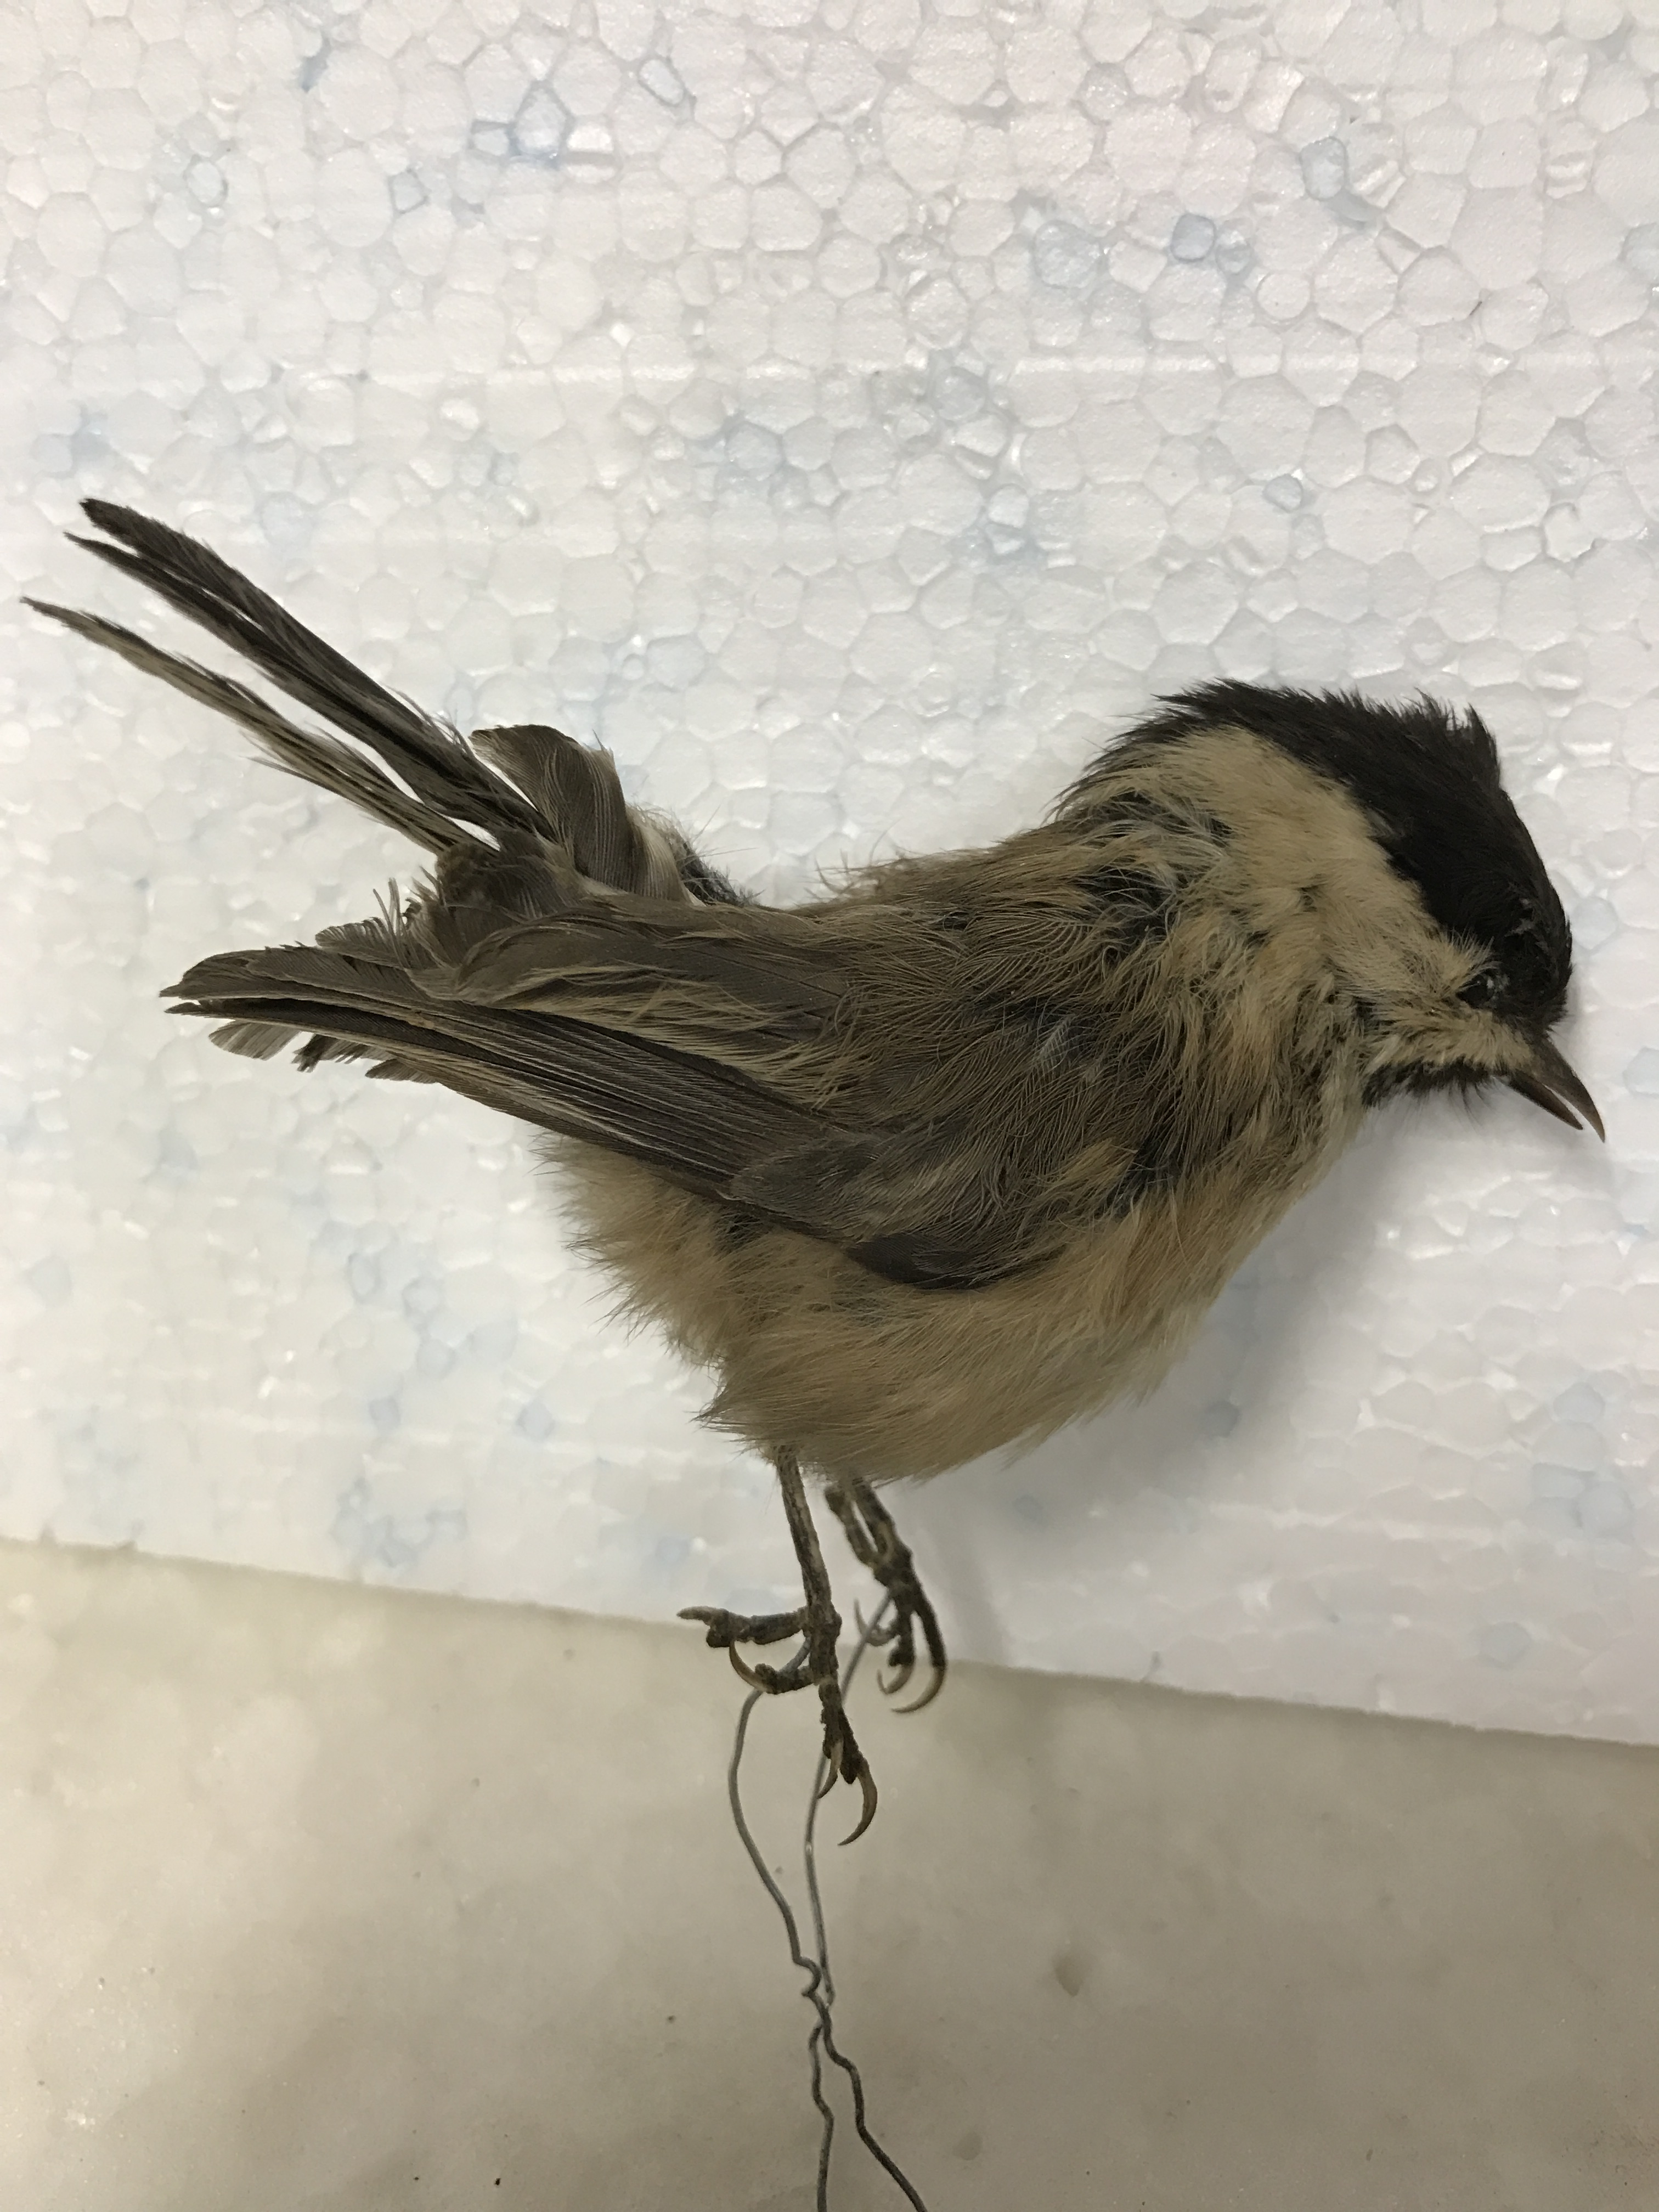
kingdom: Animalia
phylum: Chordata
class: Aves
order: Passeriformes
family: Paridae
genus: Poecile
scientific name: Poecile palustris
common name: Marsh tit
